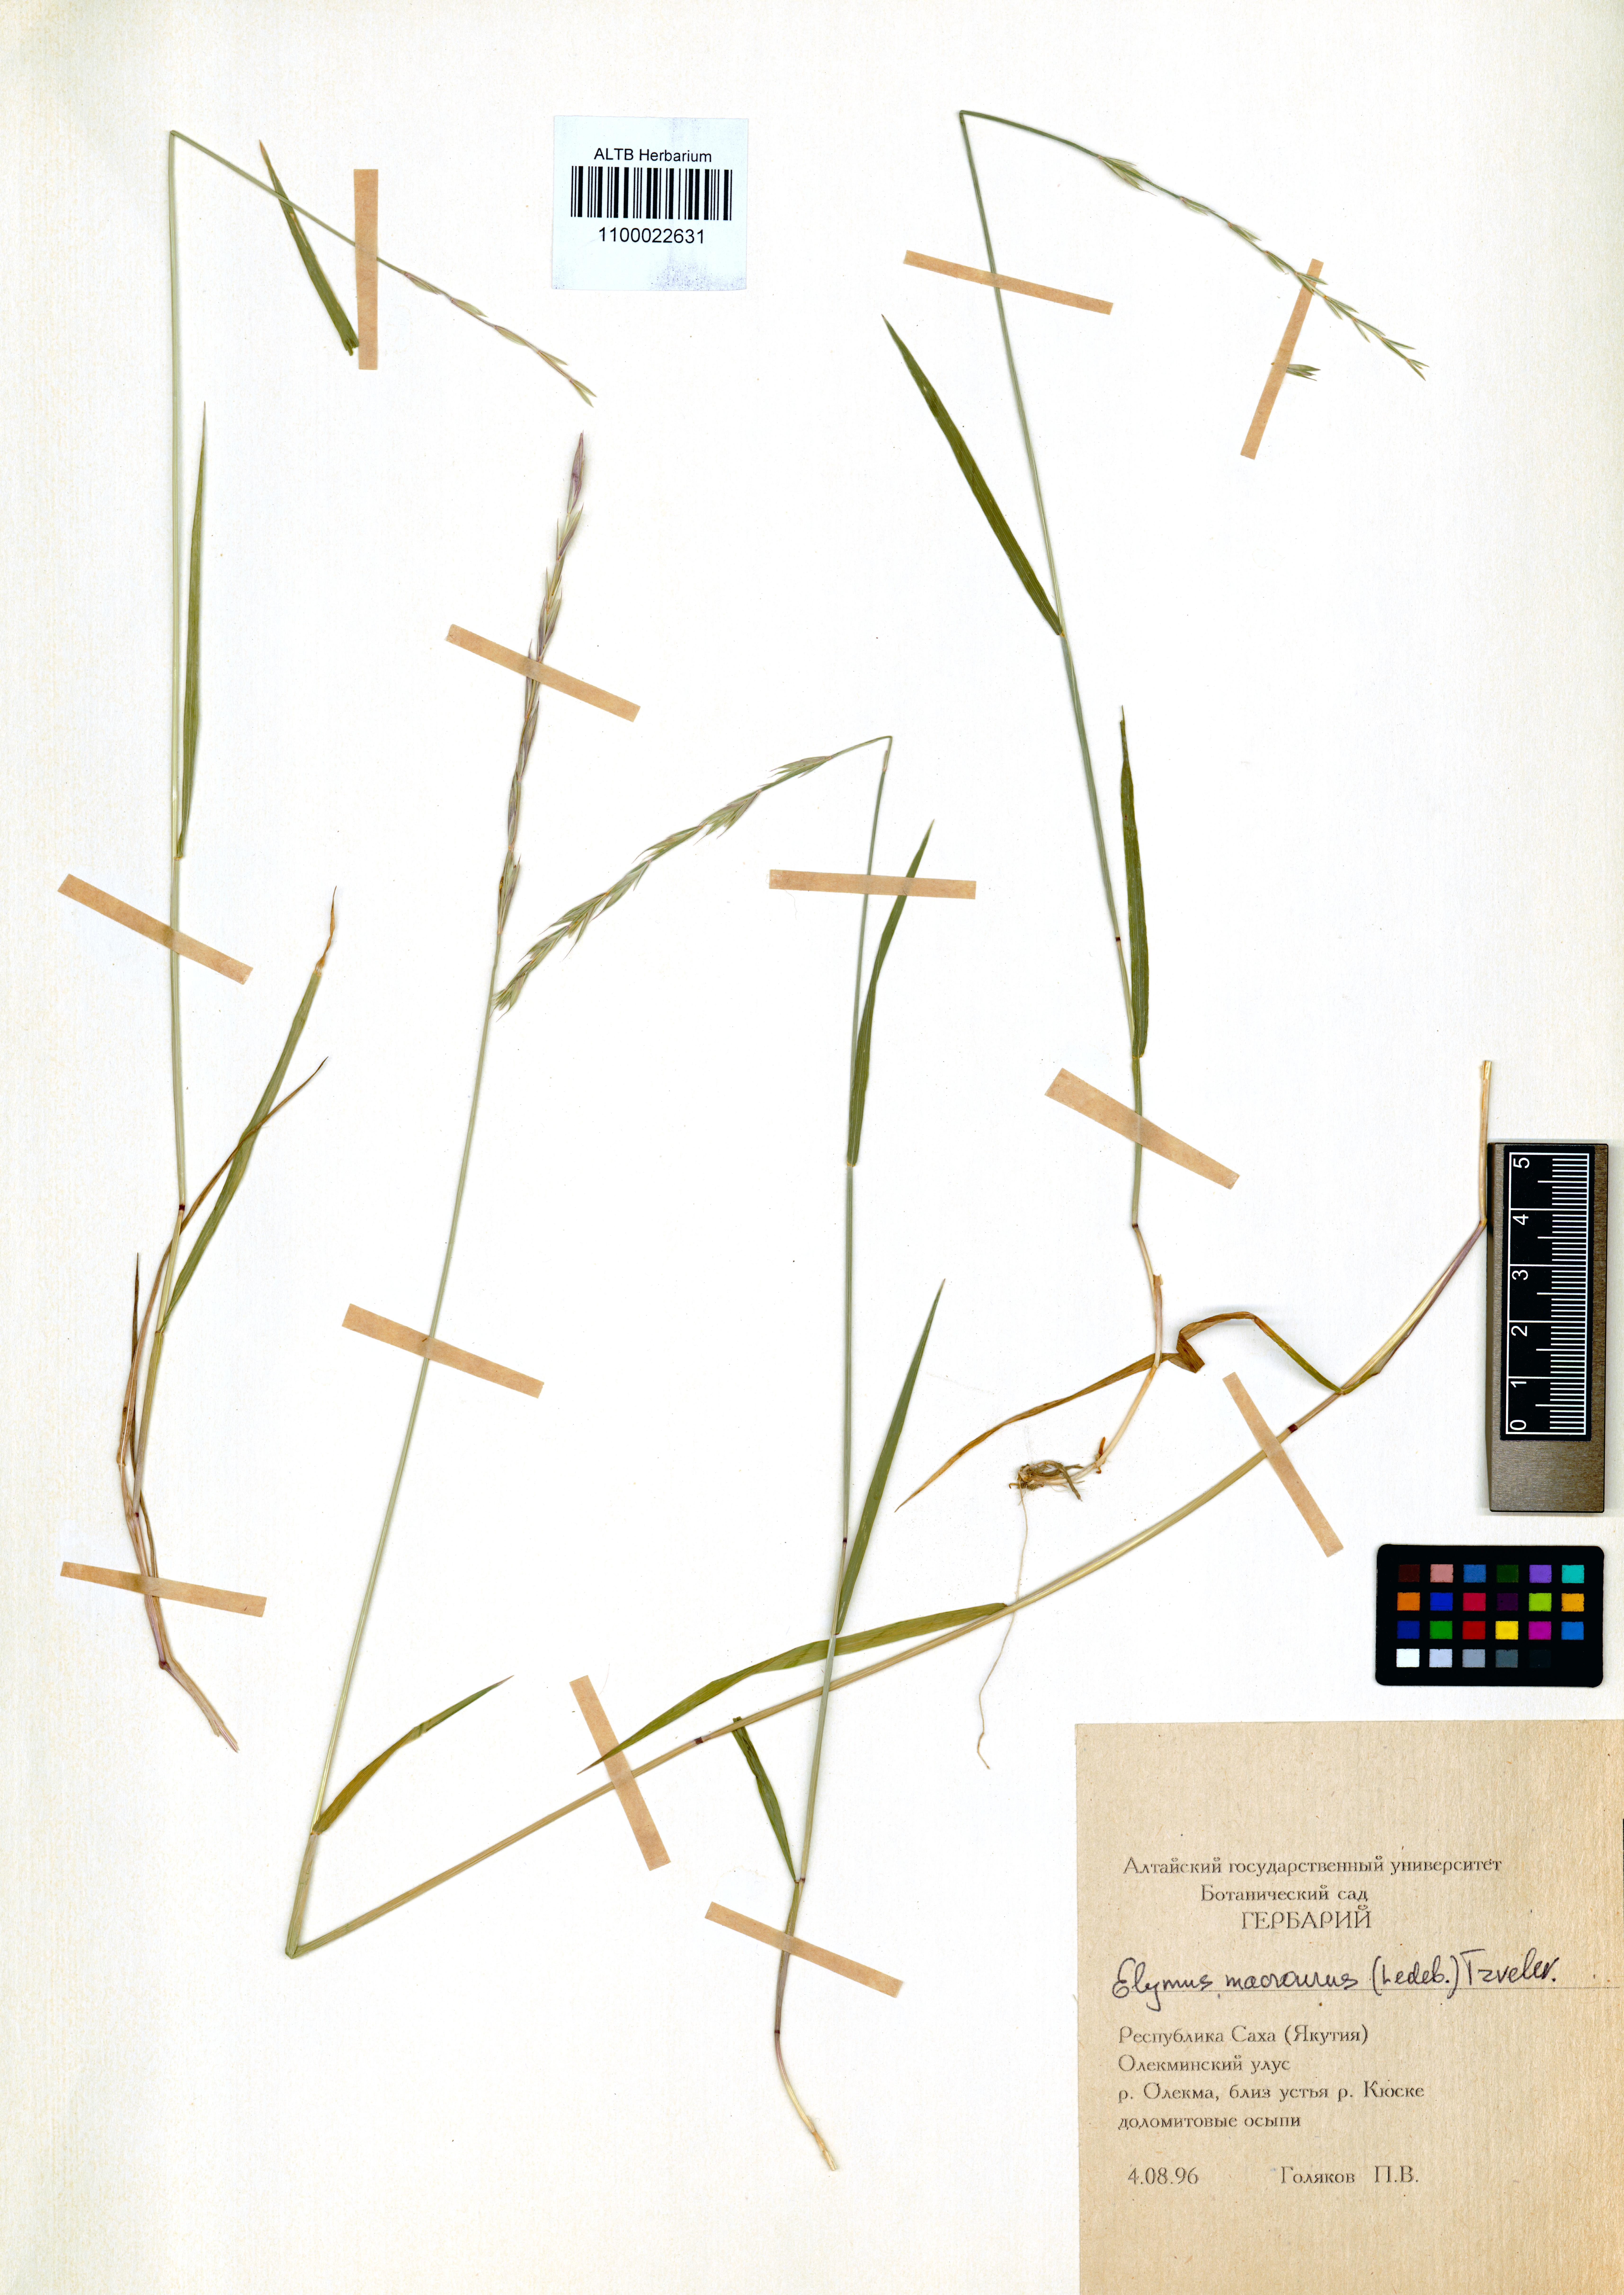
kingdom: Plantae
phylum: Tracheophyta
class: Liliopsida
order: Poales
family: Poaceae
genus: Elymus
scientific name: Elymus macrourus
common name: Northern wheatgrass
